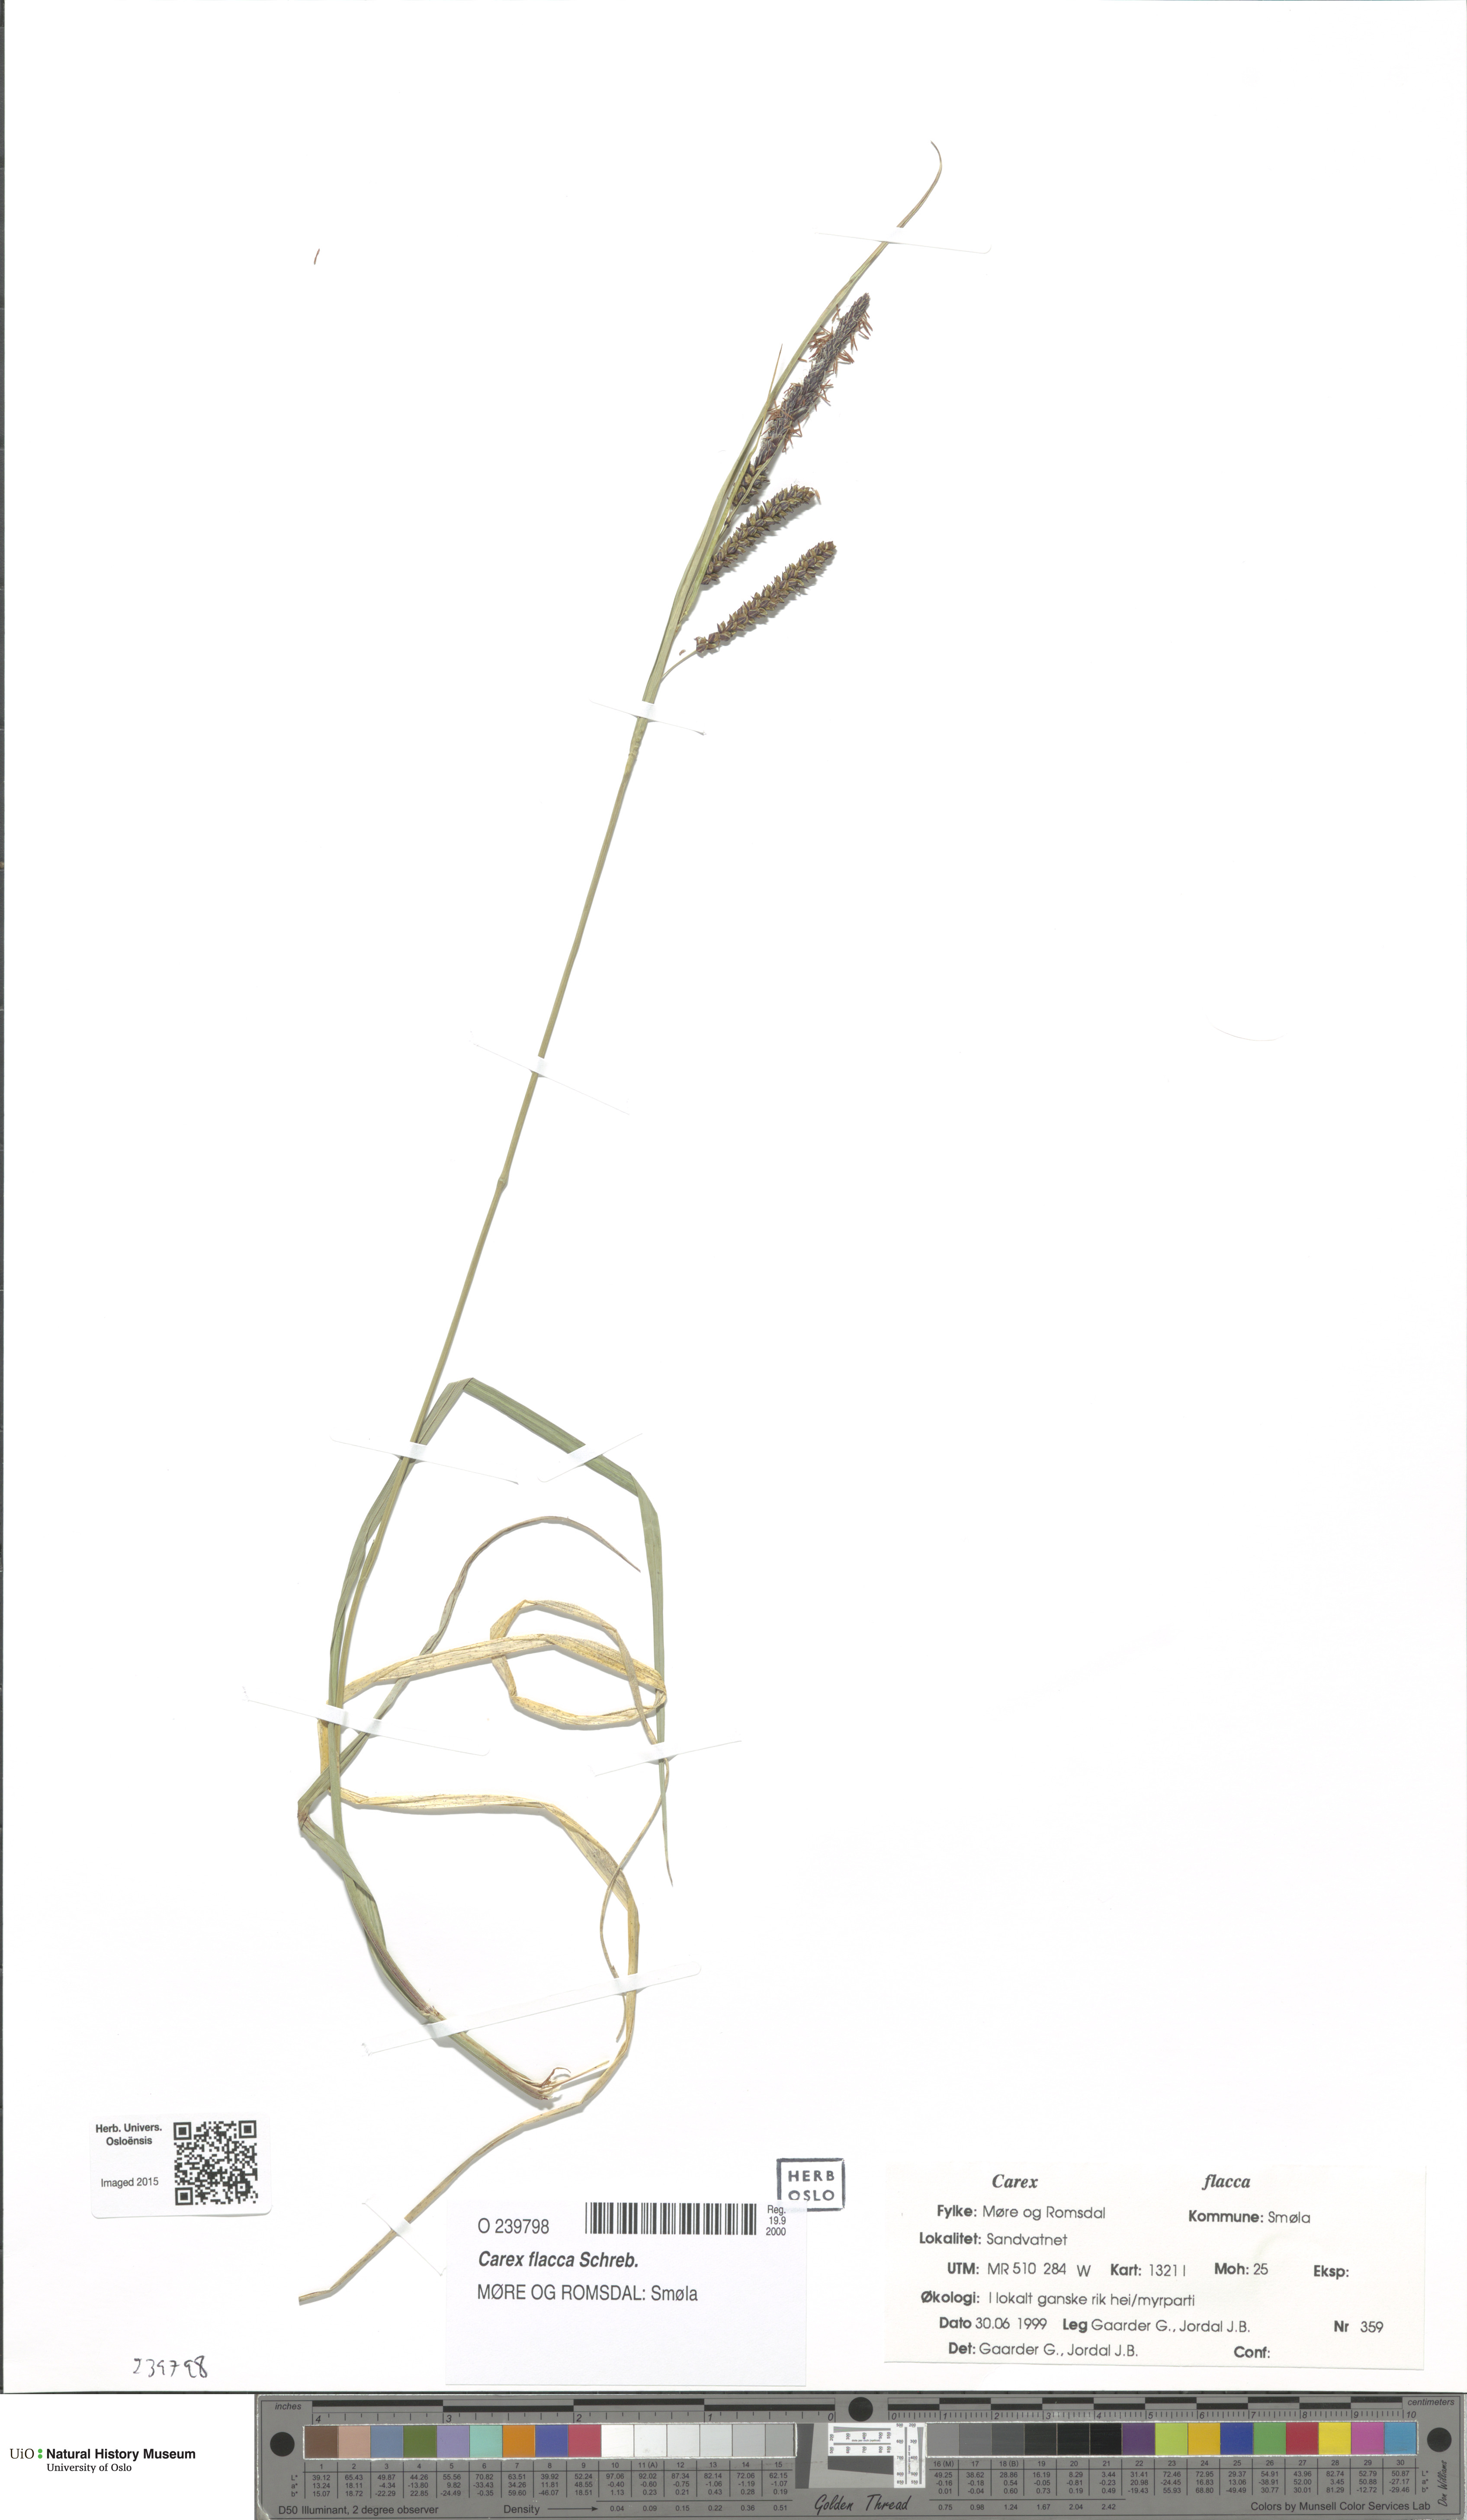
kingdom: Plantae
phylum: Tracheophyta
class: Liliopsida
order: Poales
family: Cyperaceae
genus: Carex
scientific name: Carex flacca
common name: Glaucous sedge
